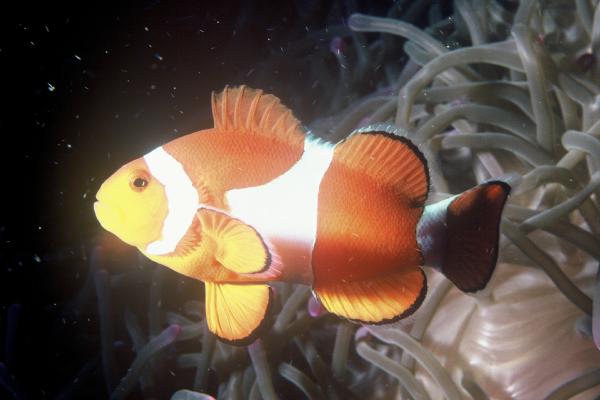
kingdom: Animalia
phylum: Chordata
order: Perciformes
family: Pomacentridae
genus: Amphiprion
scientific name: Amphiprion ocellaris
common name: Clown anemonefish
